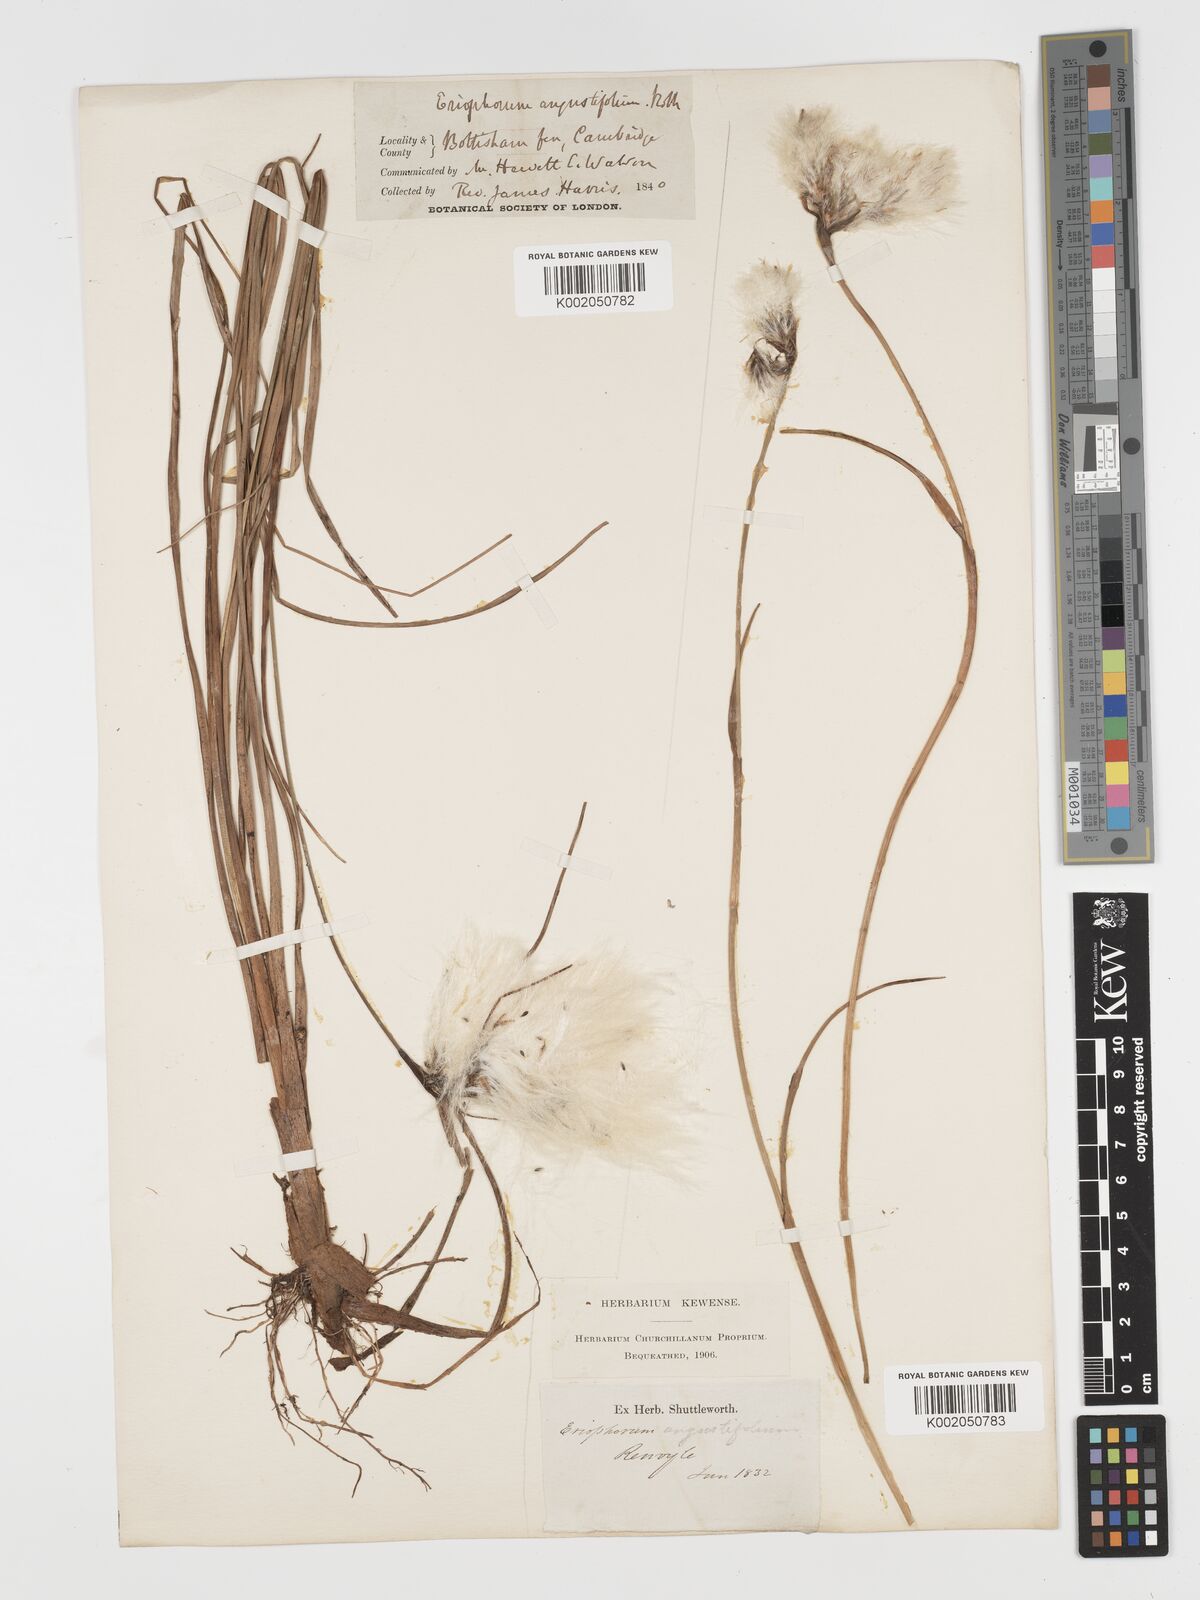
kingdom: Plantae
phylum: Tracheophyta
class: Liliopsida
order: Poales
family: Cyperaceae
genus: Eriophorum
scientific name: Eriophorum angustifolium
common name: Common cottongrass
